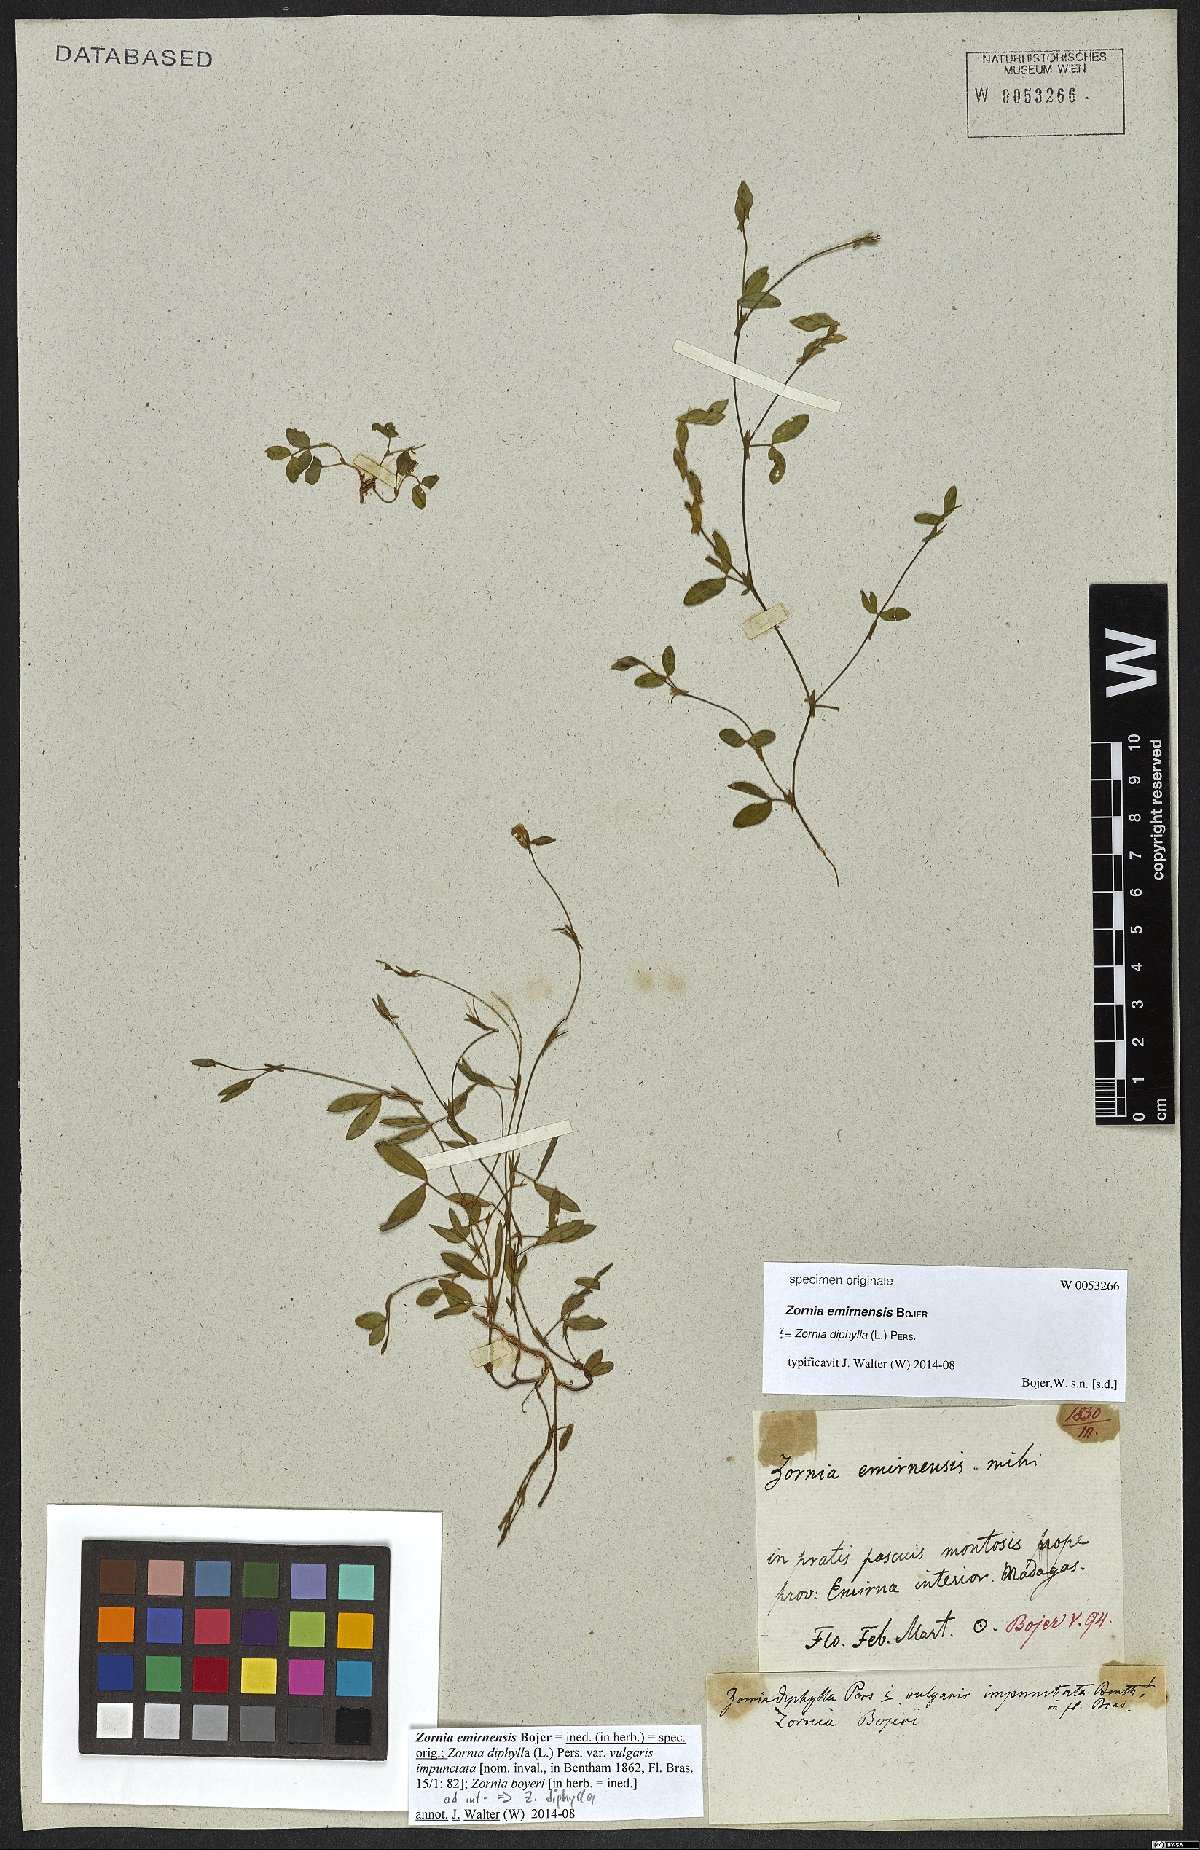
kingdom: Plantae
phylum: Tracheophyta
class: Magnoliopsida
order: Fabales
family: Fabaceae
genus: Zornia
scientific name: Zornia diphylla
